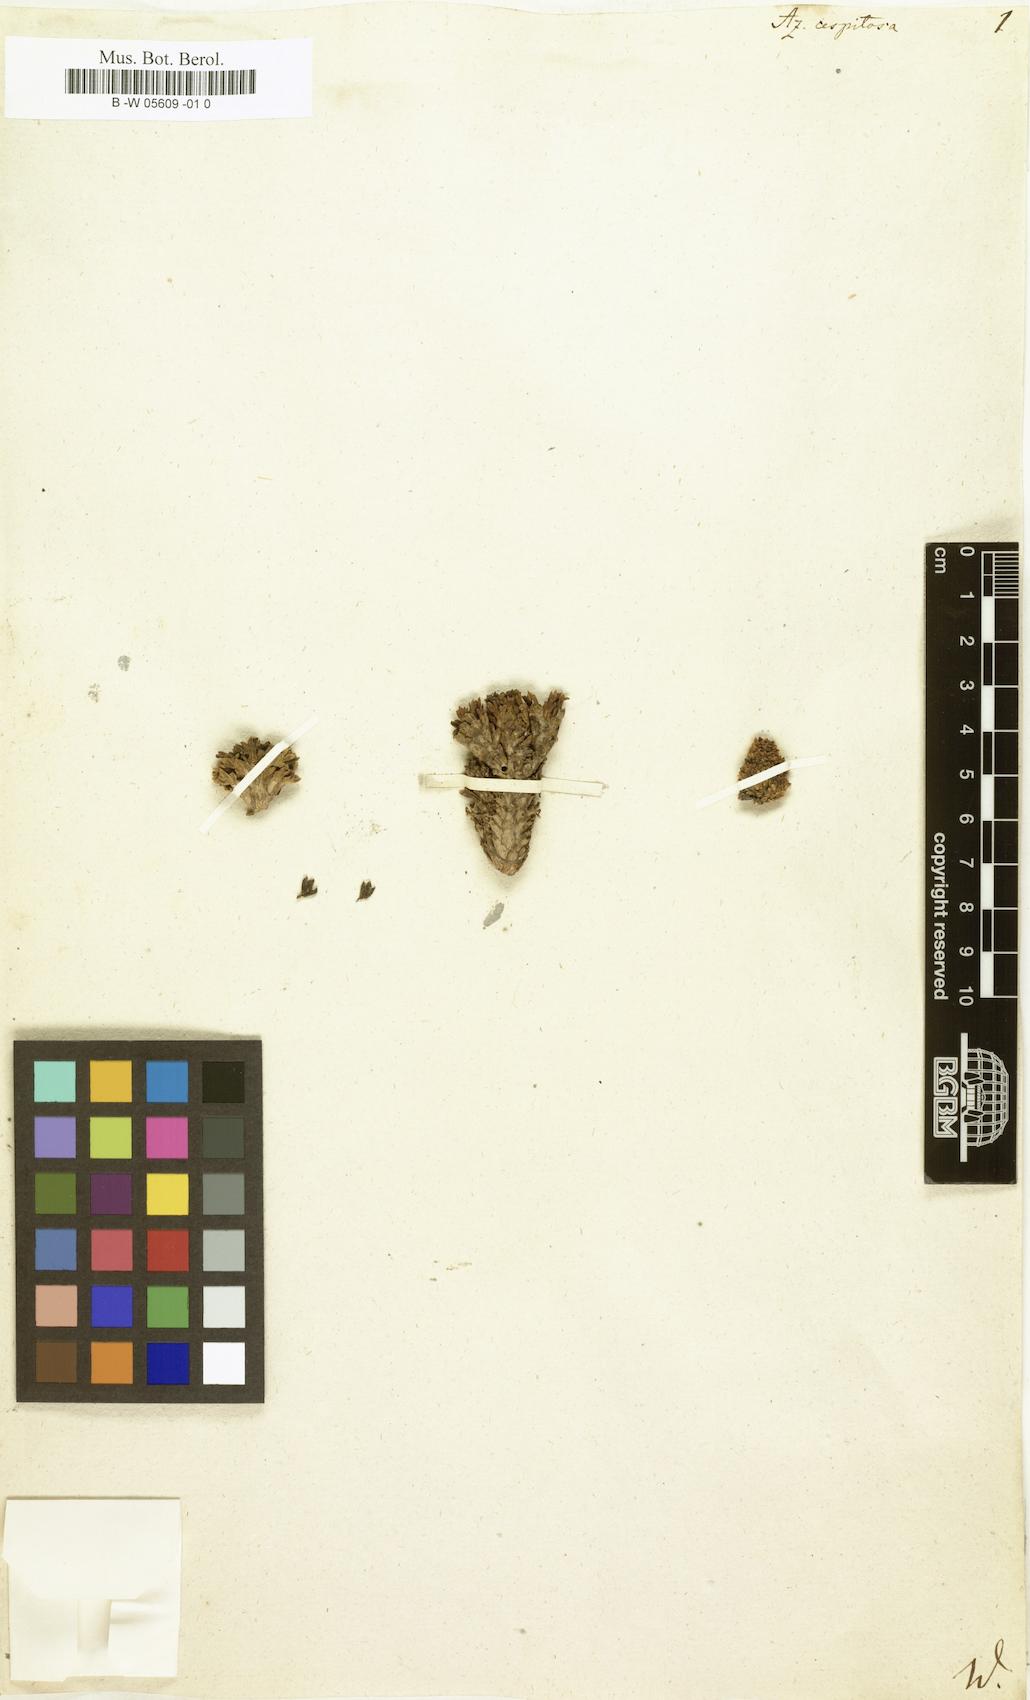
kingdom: Plantae
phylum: Tracheophyta
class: Magnoliopsida
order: Apiales
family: Apiaceae
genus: Azorella
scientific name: Azorella
